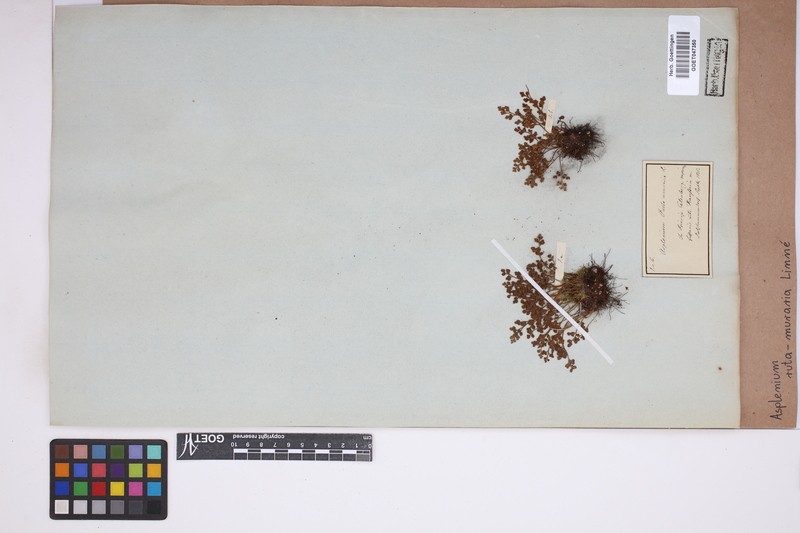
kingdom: Plantae
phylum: Tracheophyta
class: Polypodiopsida
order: Polypodiales
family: Aspleniaceae
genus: Asplenium
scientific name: Asplenium ruta-muraria
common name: Wall-rue
